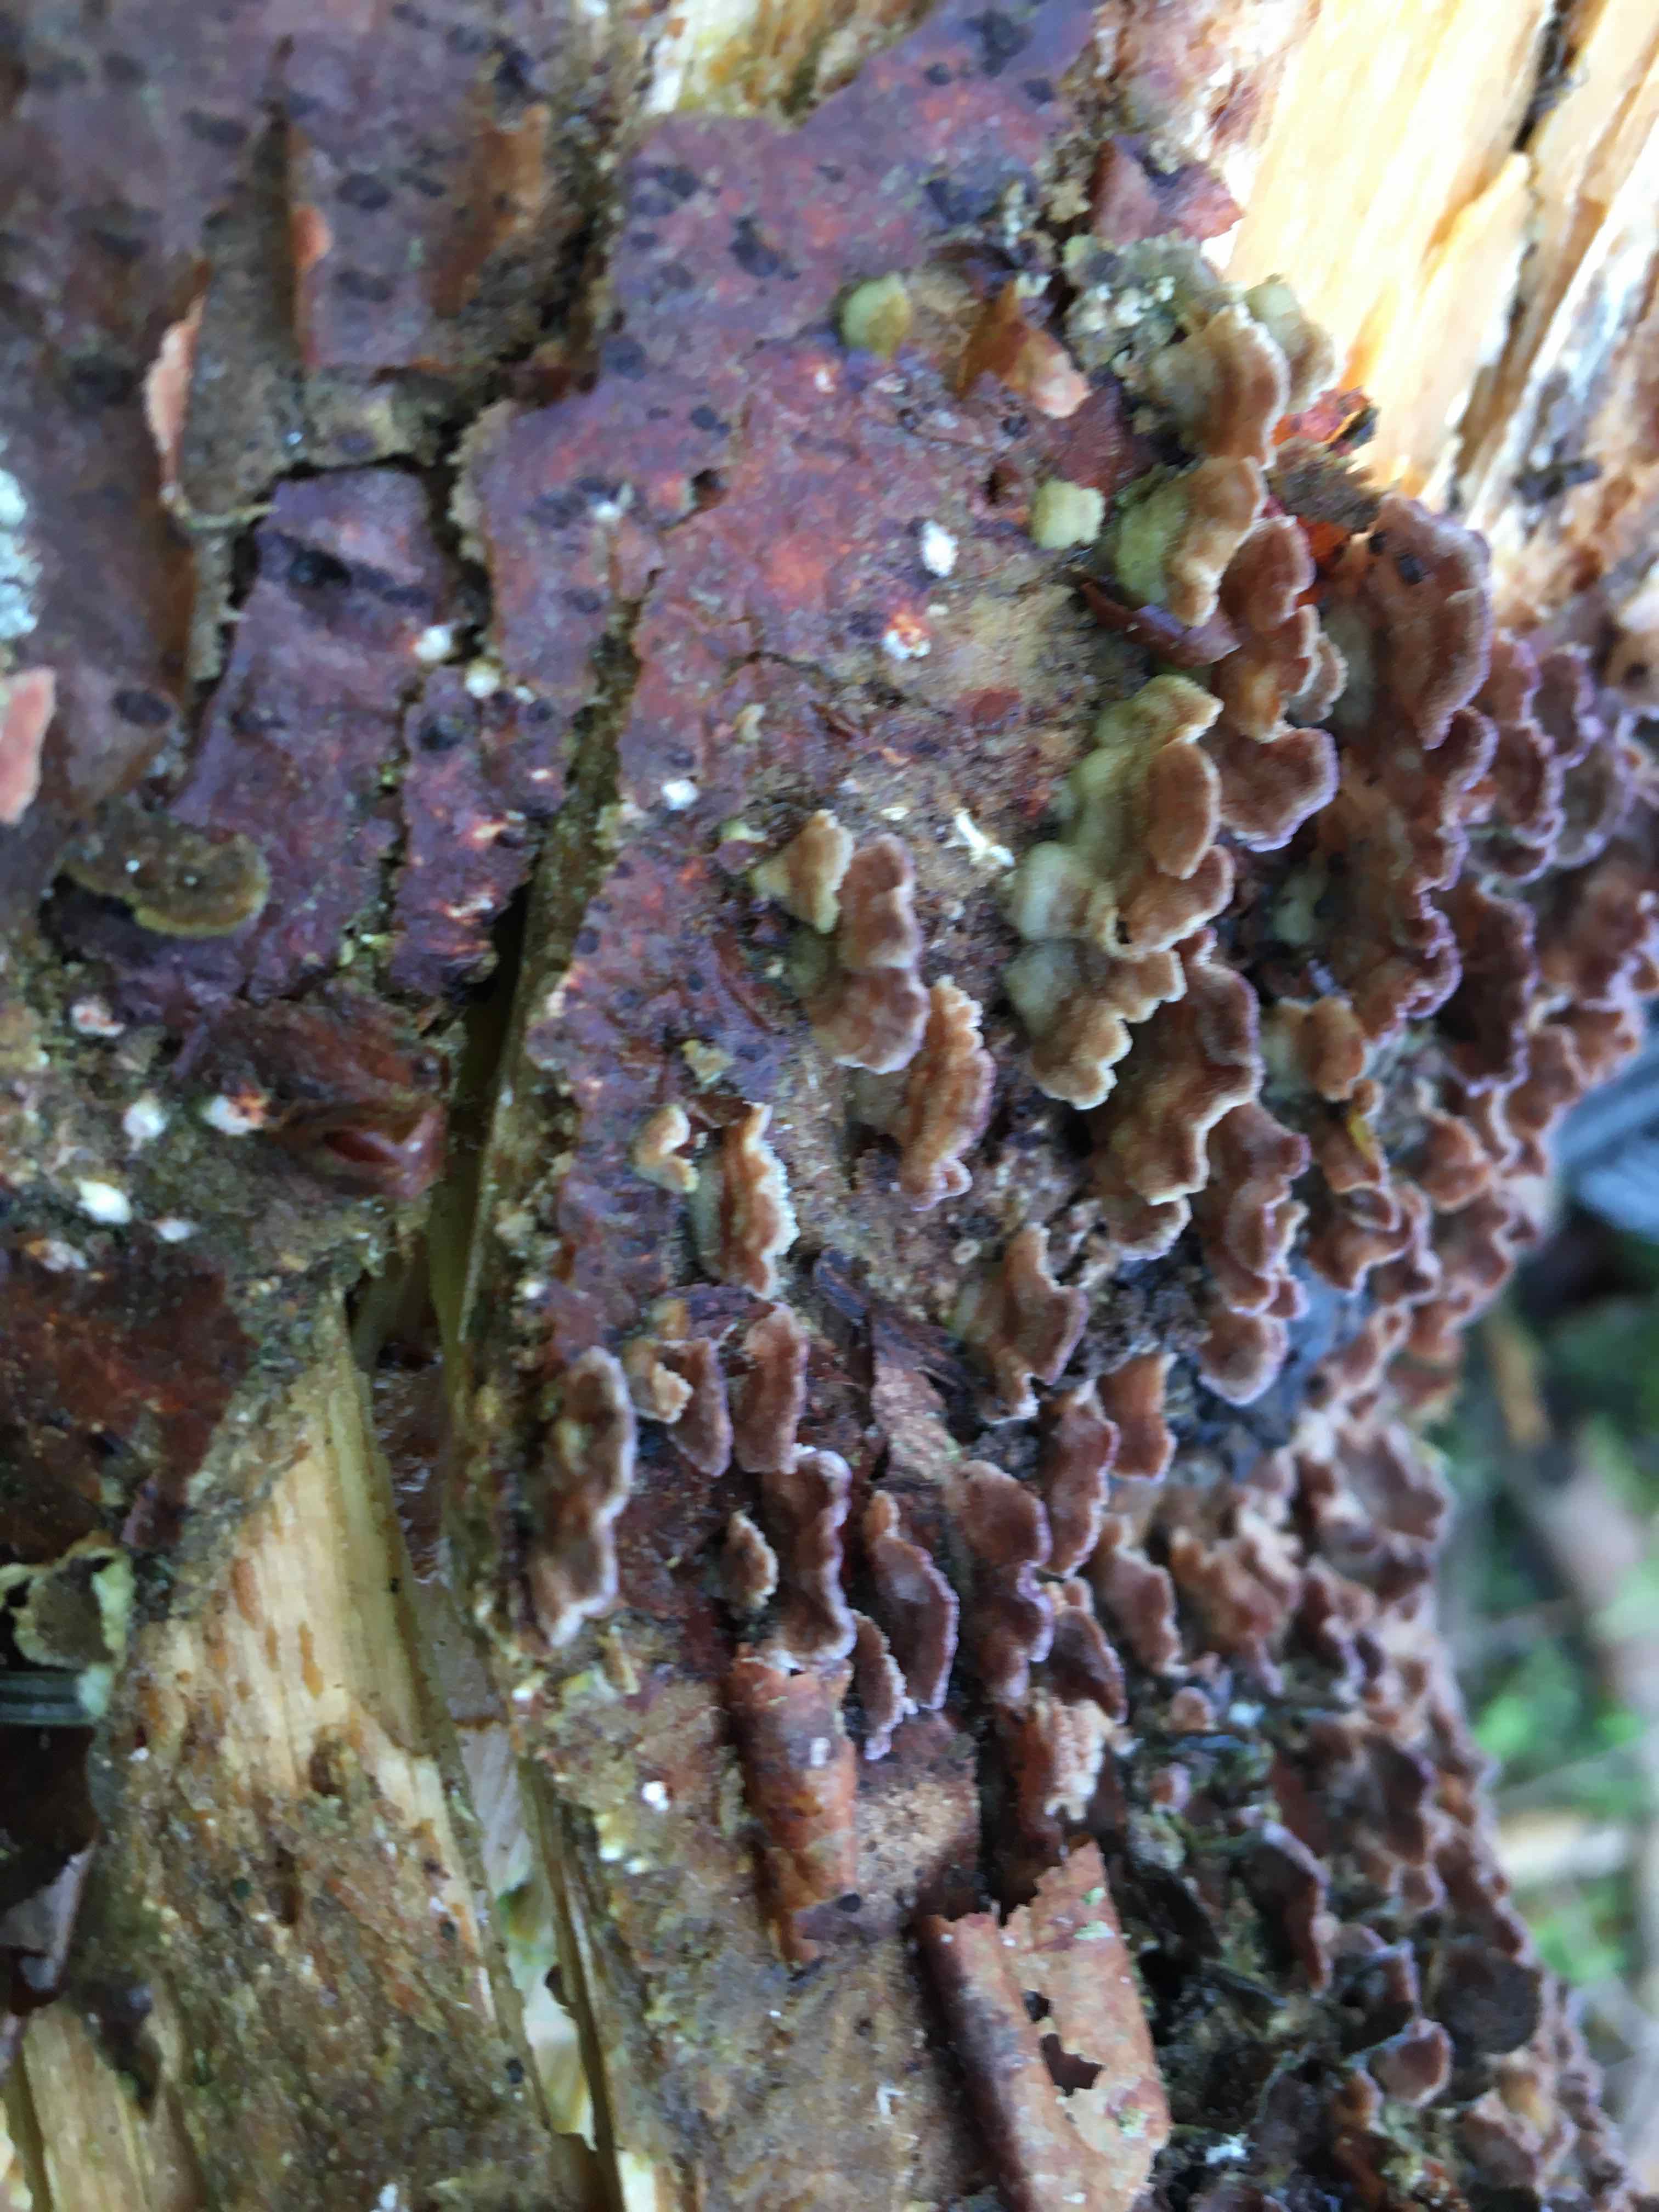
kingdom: Fungi
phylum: Basidiomycota
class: Agaricomycetes
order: Hymenochaetales
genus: Trichaptum
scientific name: Trichaptum abietinum
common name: almindelig violporesvamp
